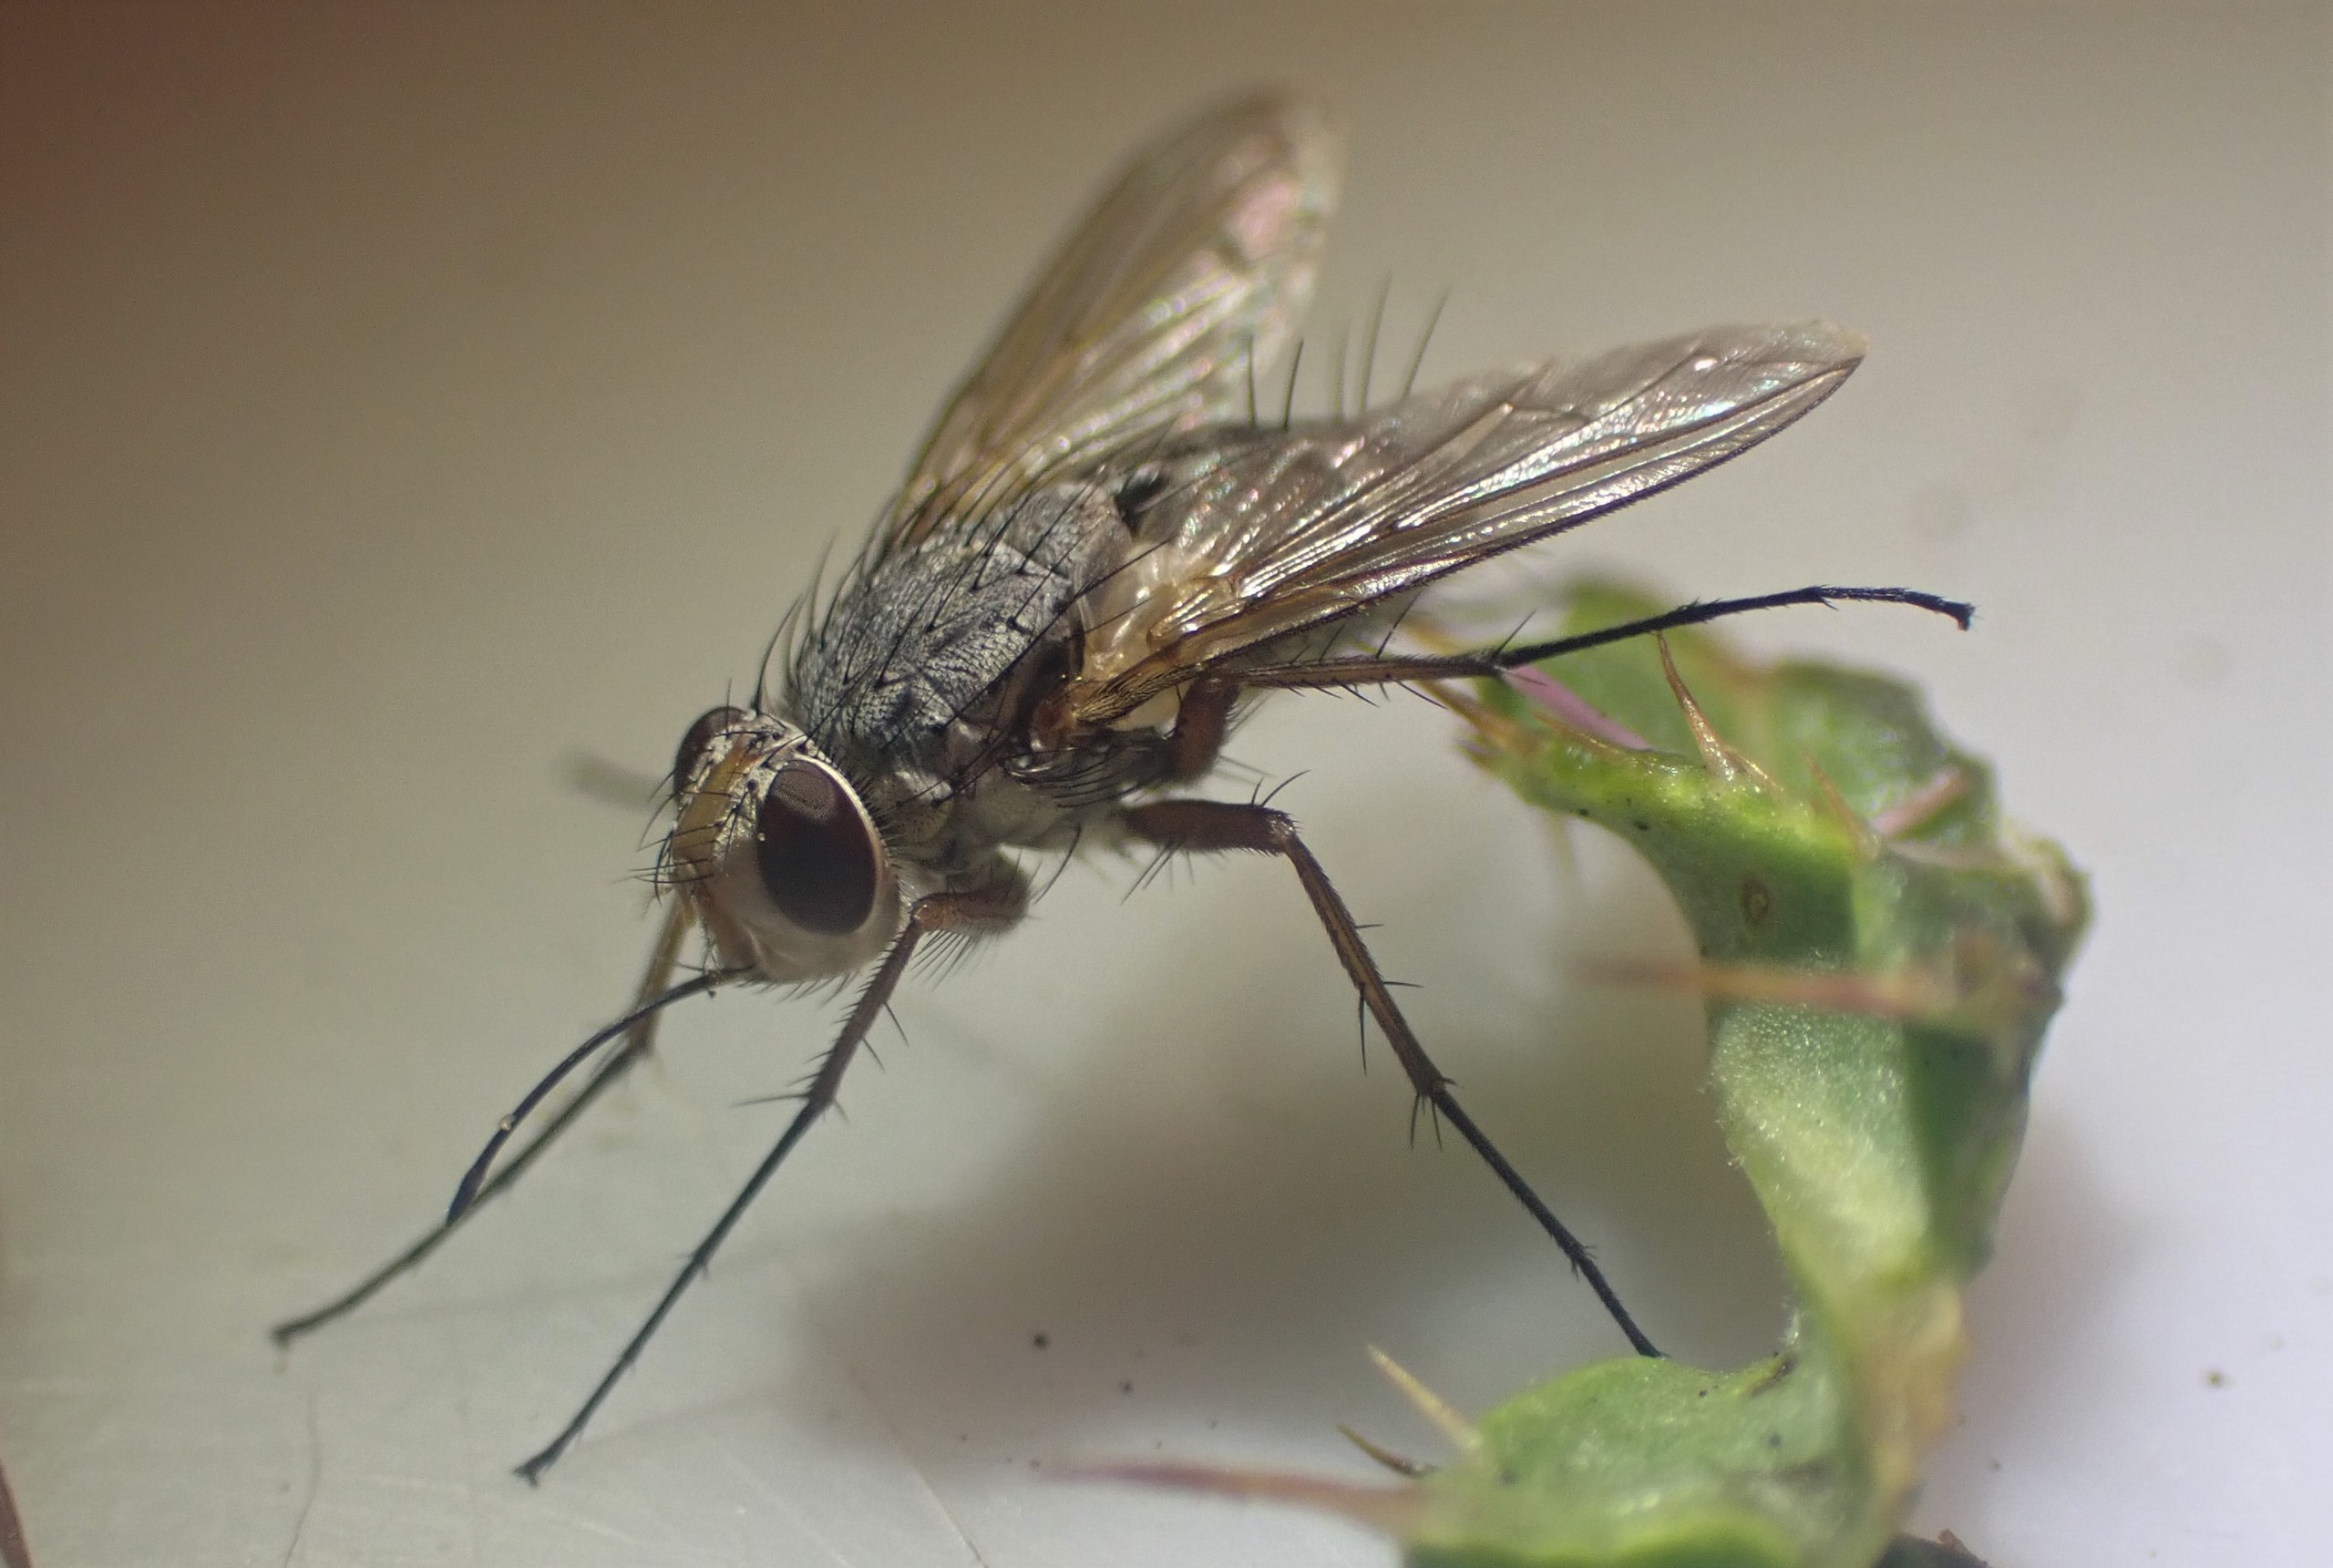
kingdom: Animalia
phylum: Arthropoda
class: Insecta
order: Diptera
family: Tachinidae
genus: Prosena
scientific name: Prosena siberita
